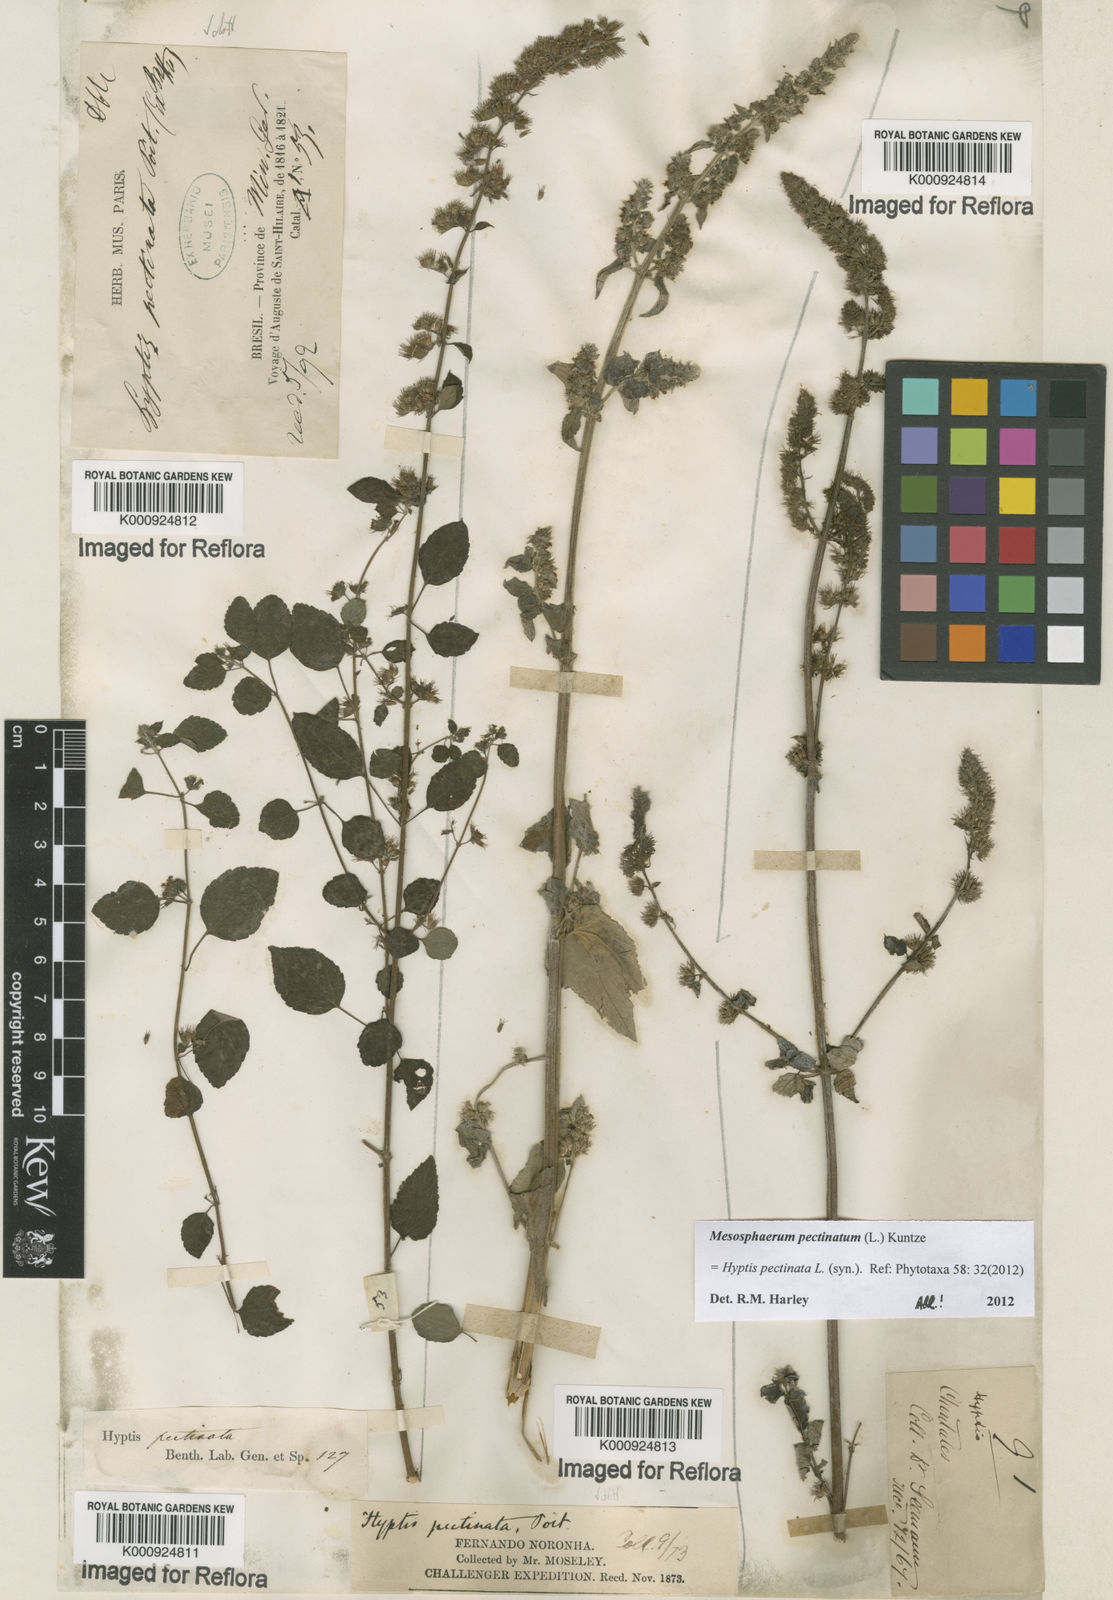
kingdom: Plantae
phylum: Tracheophyta
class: Magnoliopsida
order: Lamiales
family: Lamiaceae
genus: Mesosphaerum
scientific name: Mesosphaerum pectinatum
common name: Comb hyptis
